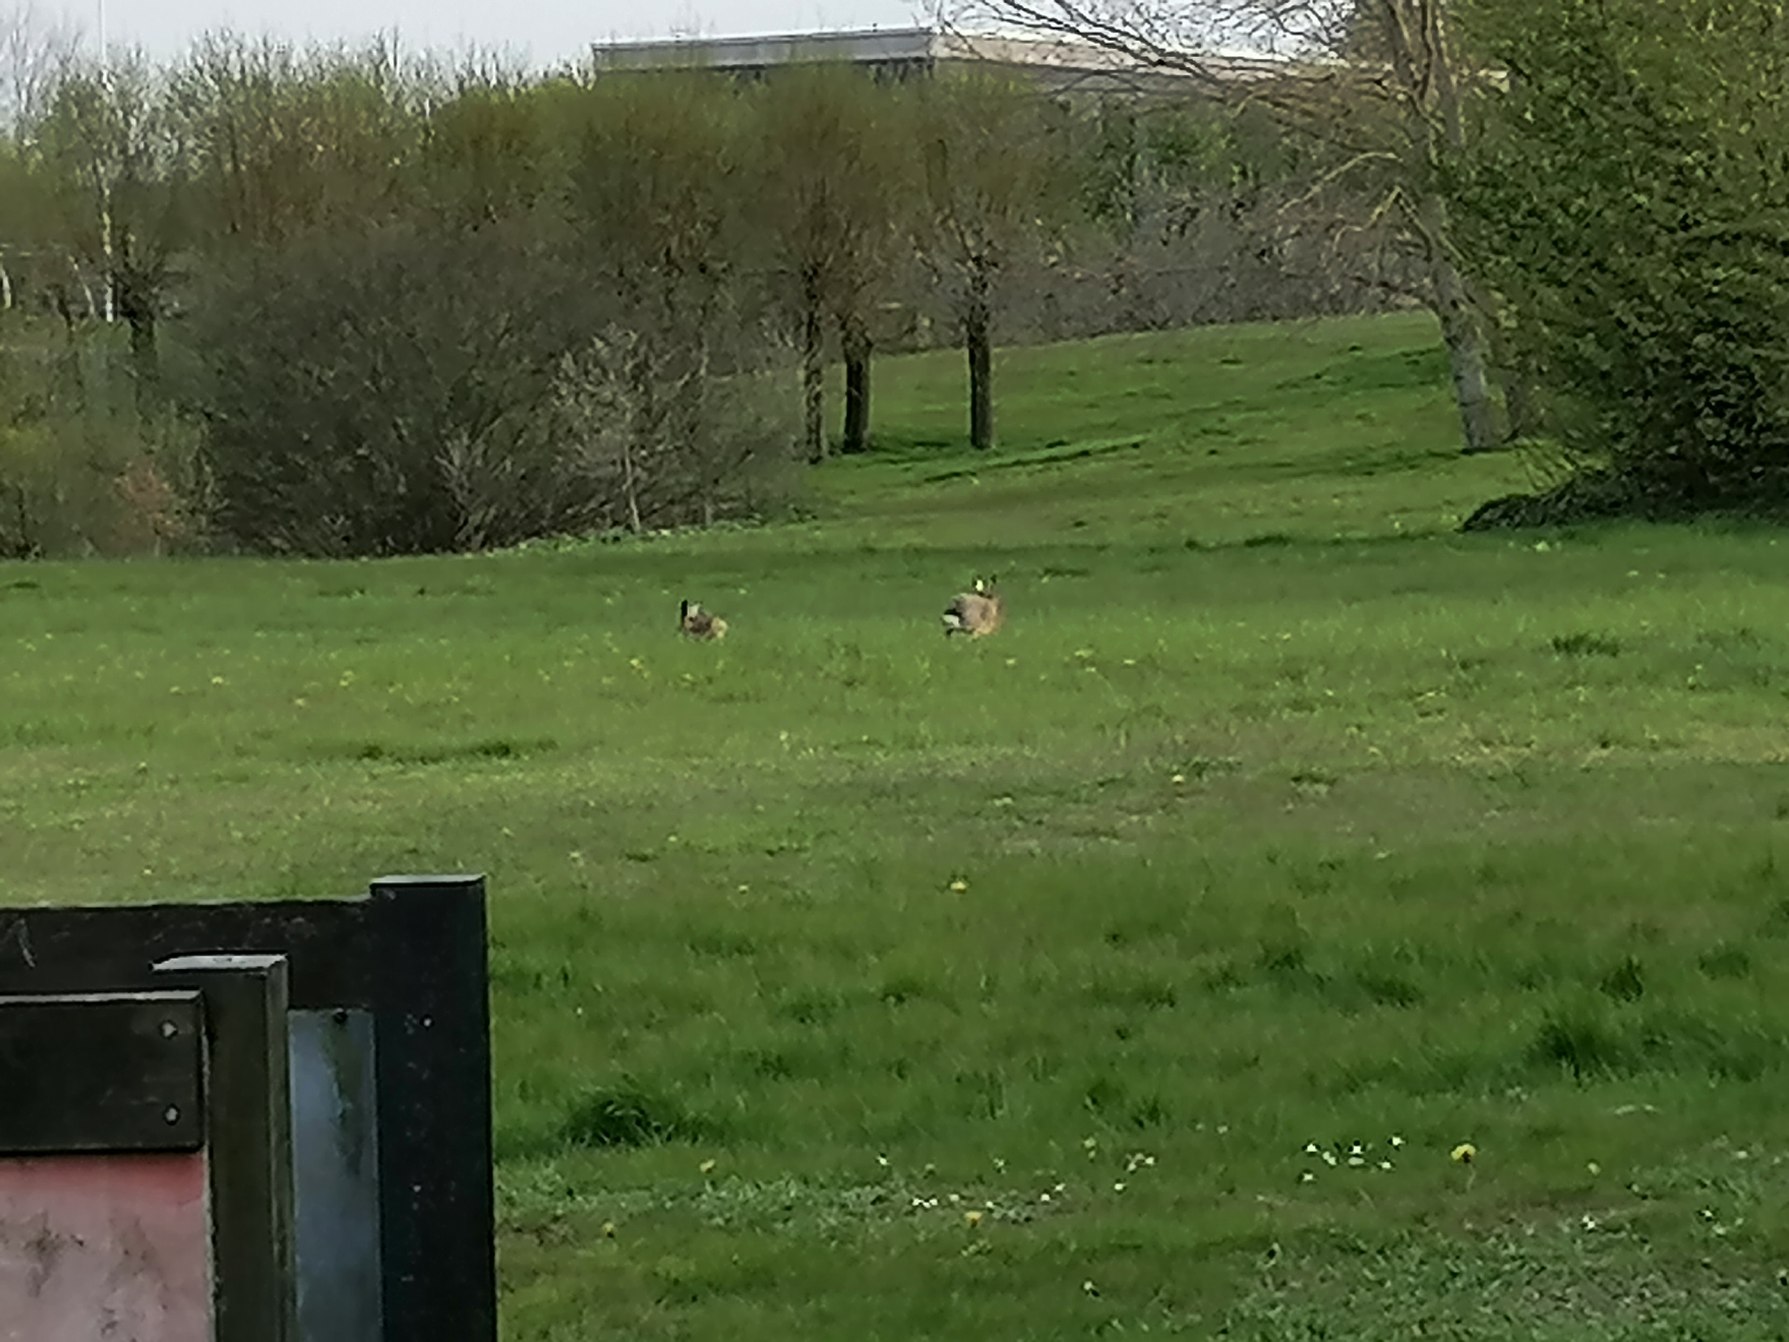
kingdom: Animalia
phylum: Chordata
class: Mammalia
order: Lagomorpha
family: Leporidae
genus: Lepus
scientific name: Lepus europaeus
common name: Hare
